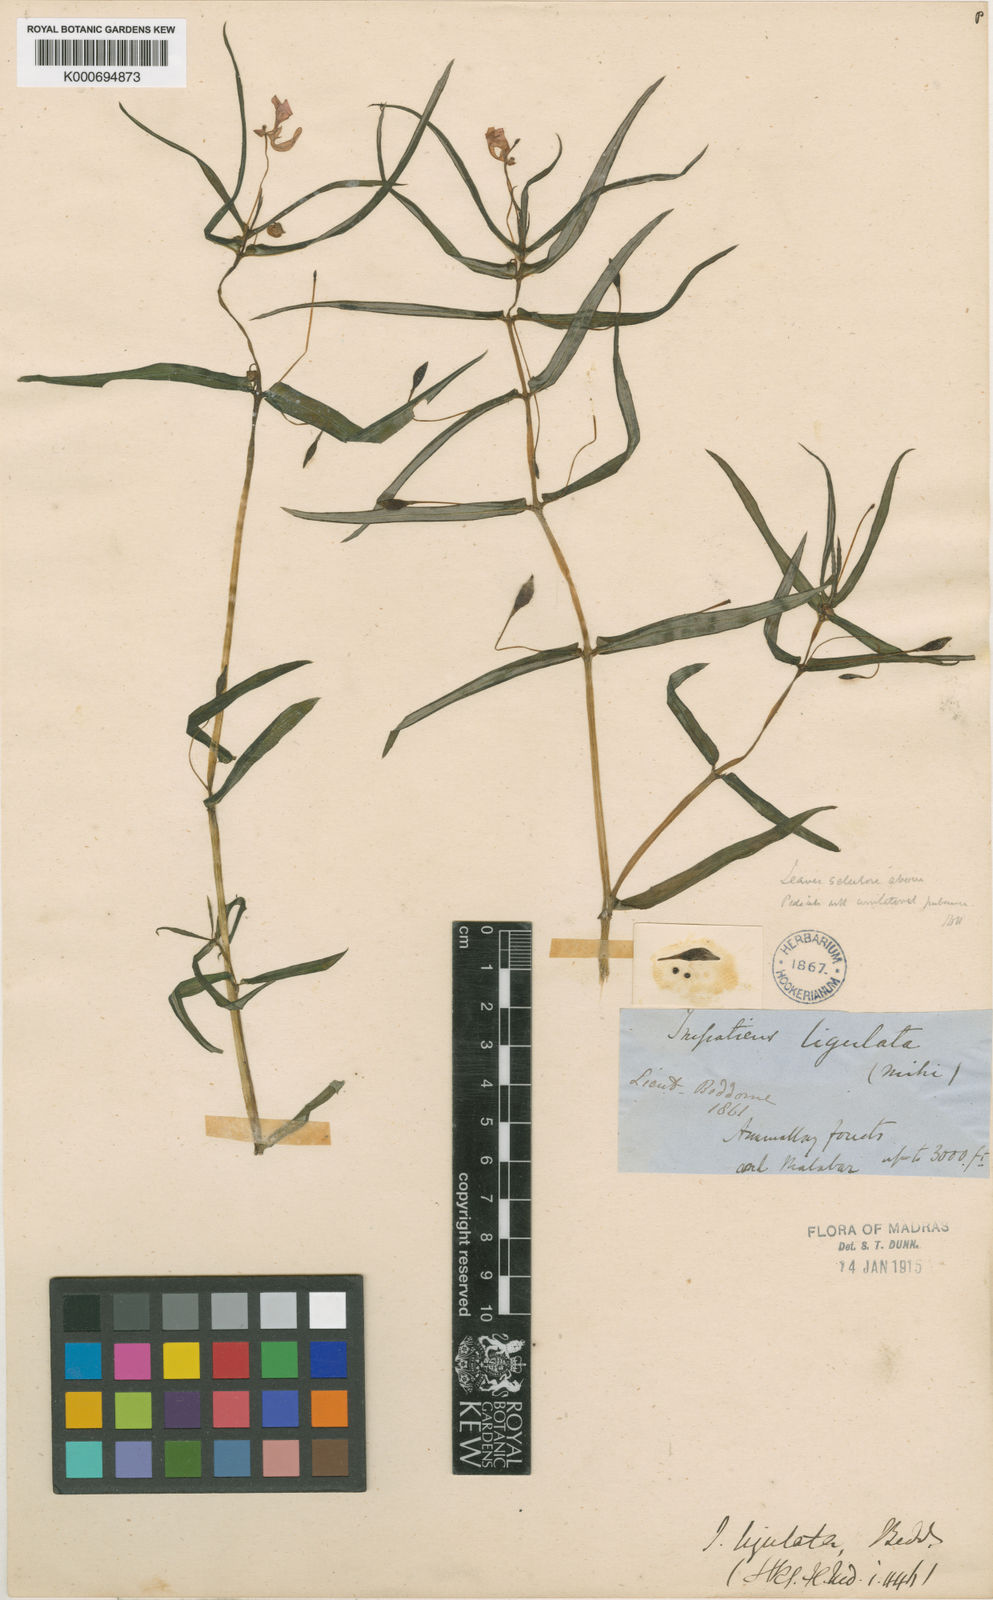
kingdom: Plantae
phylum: Tracheophyta
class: Magnoliopsida
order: Ericales
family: Balsaminaceae
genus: Impatiens
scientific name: Impatiens ligulata
